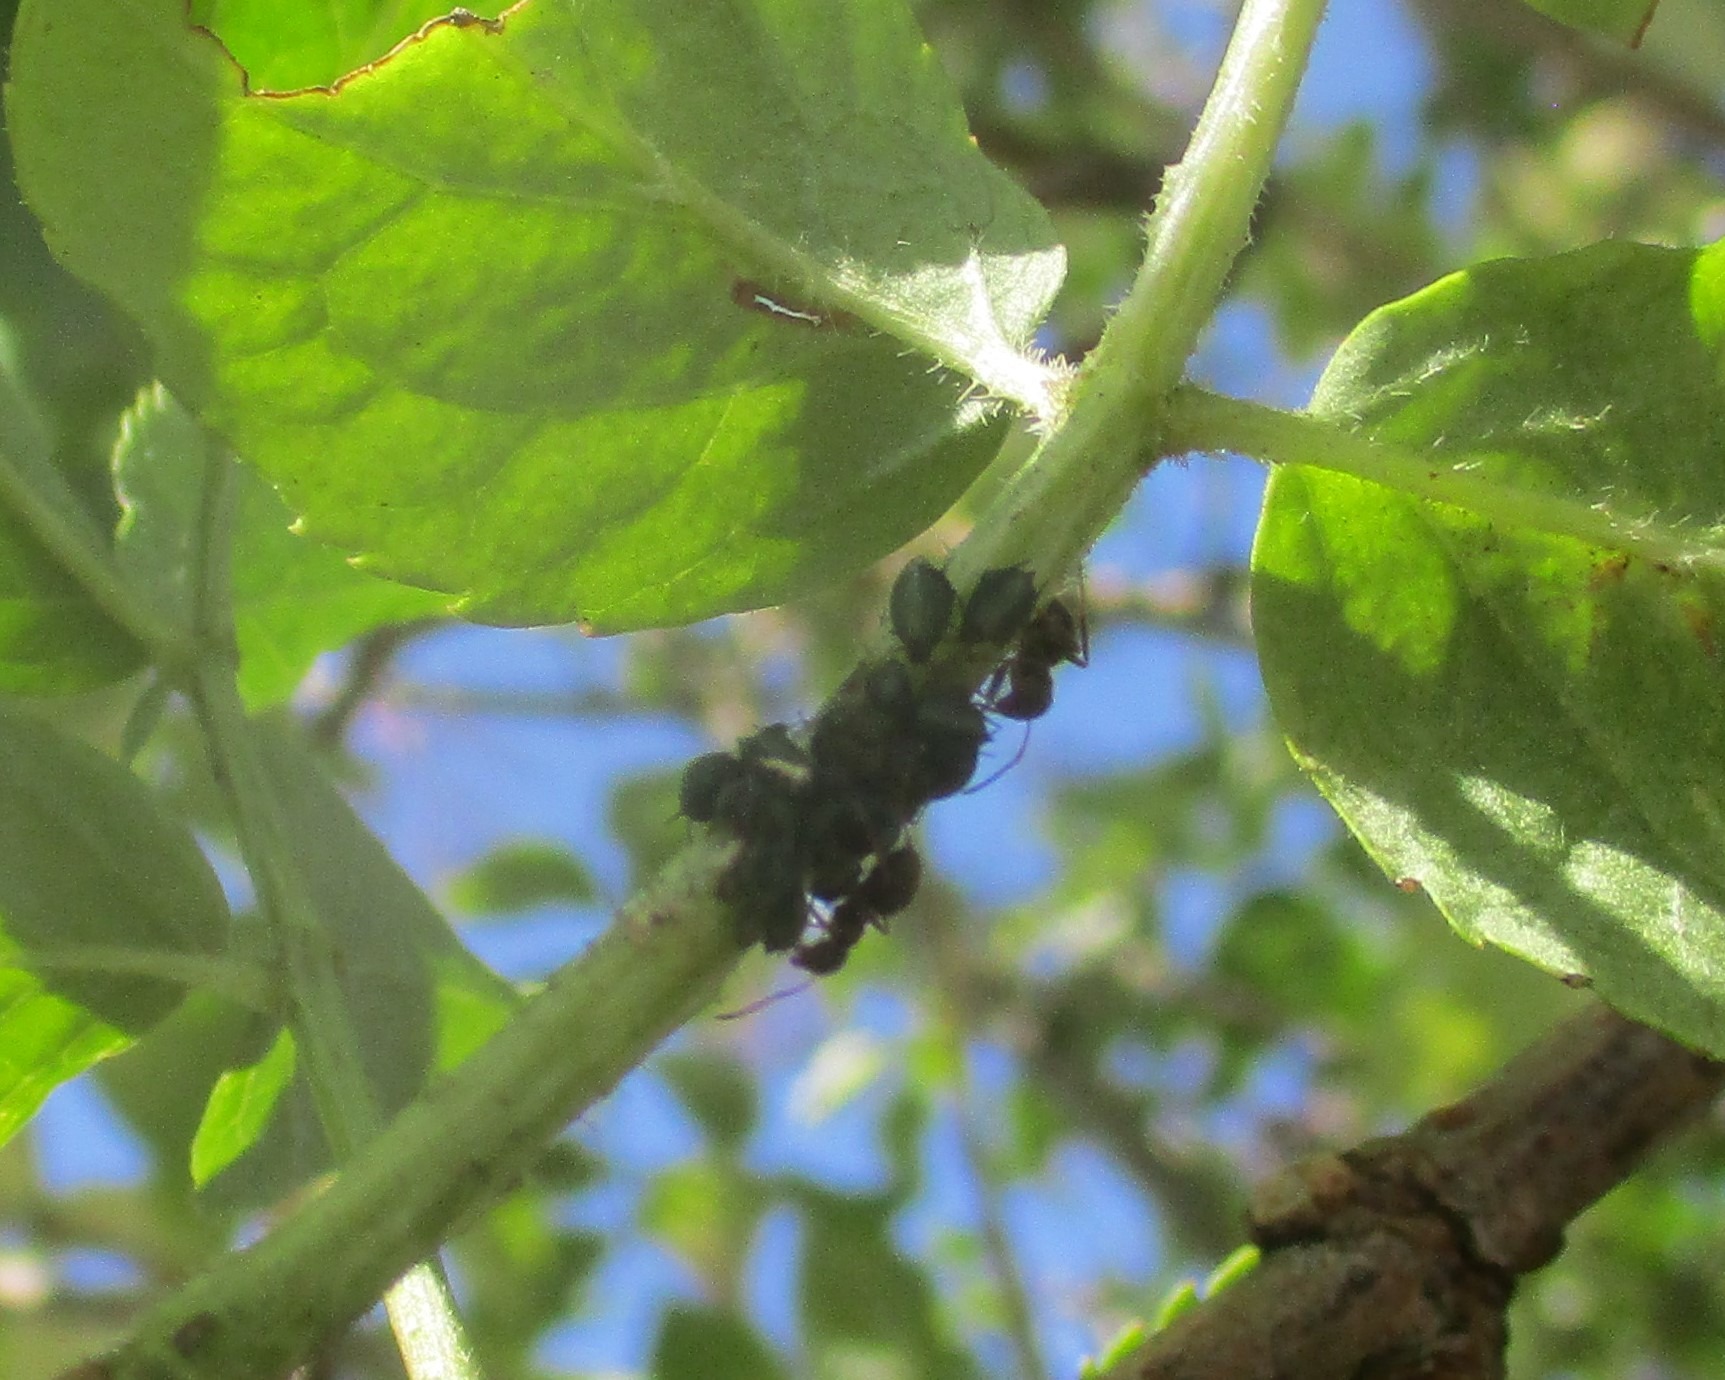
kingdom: Animalia
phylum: Arthropoda
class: Insecta
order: Hemiptera
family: Aphididae
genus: Aphis
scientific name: Aphis sambuci
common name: Hyldebladlus
